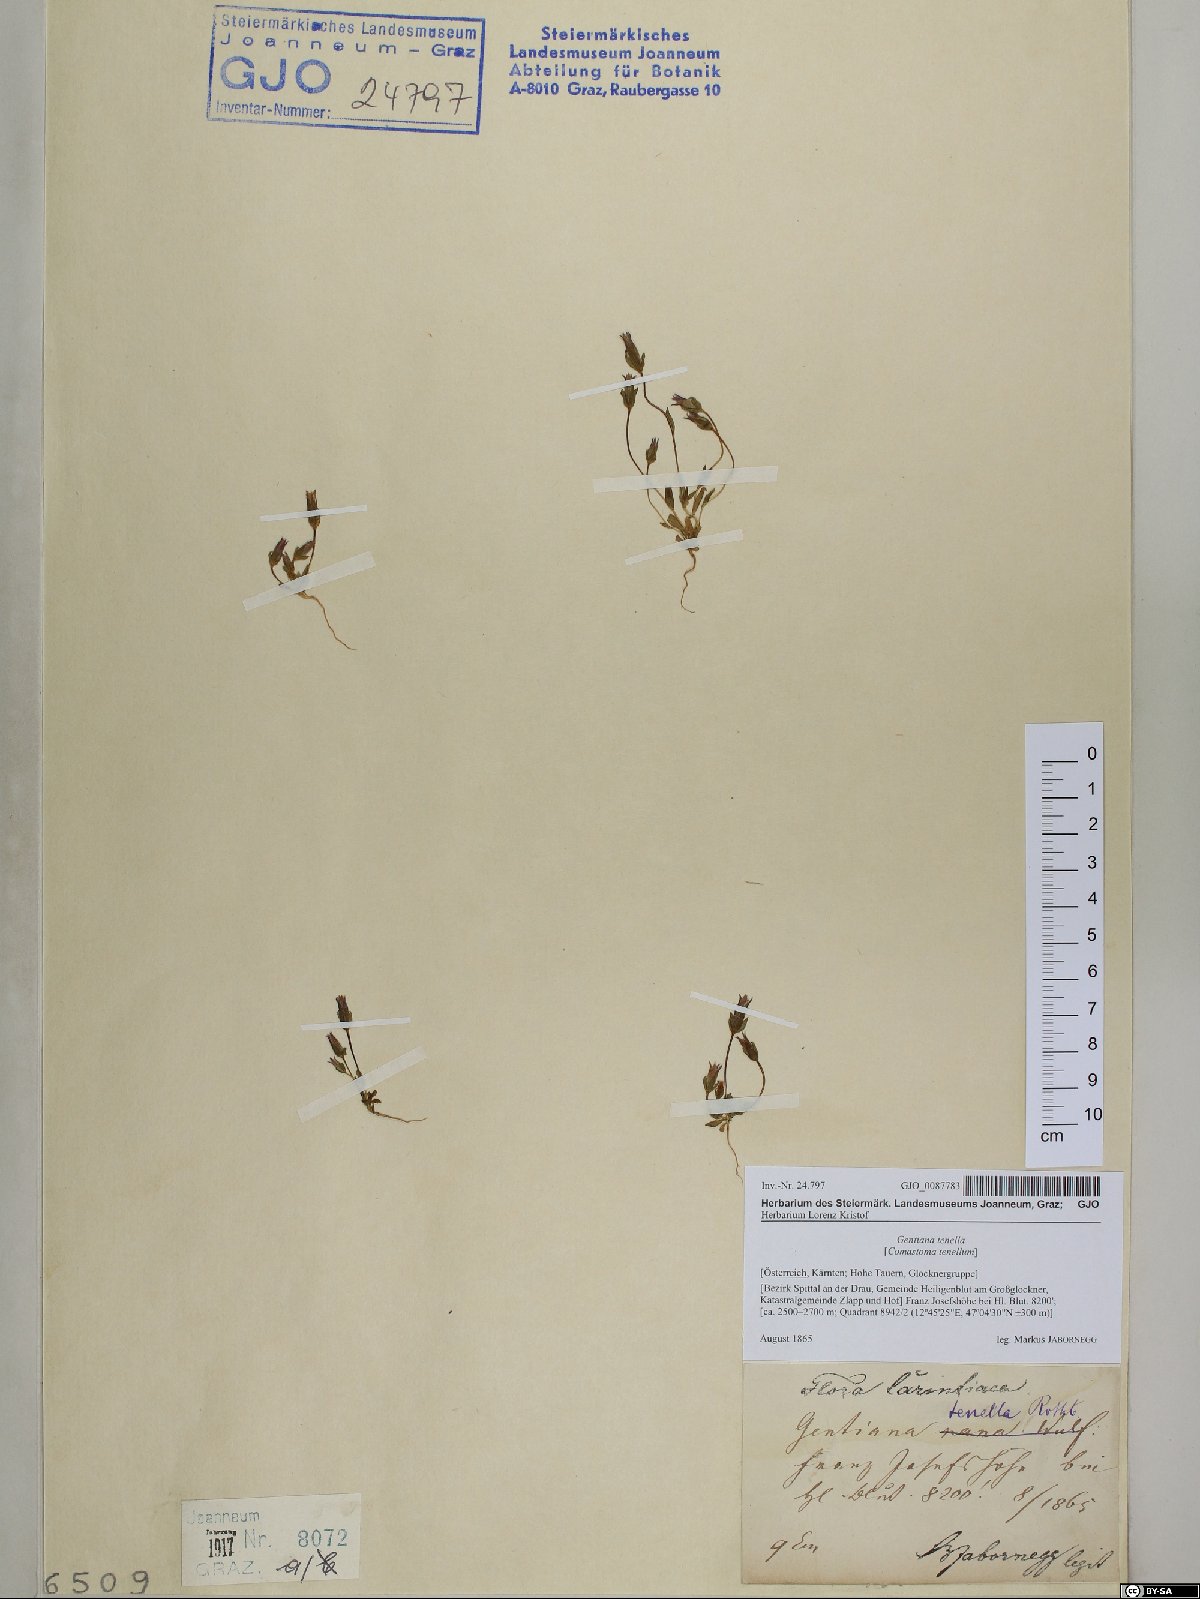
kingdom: Plantae
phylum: Tracheophyta
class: Magnoliopsida
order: Gentianales
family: Gentianaceae
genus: Comastoma
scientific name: Comastoma tenellum
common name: Dane's dwarf gentian
